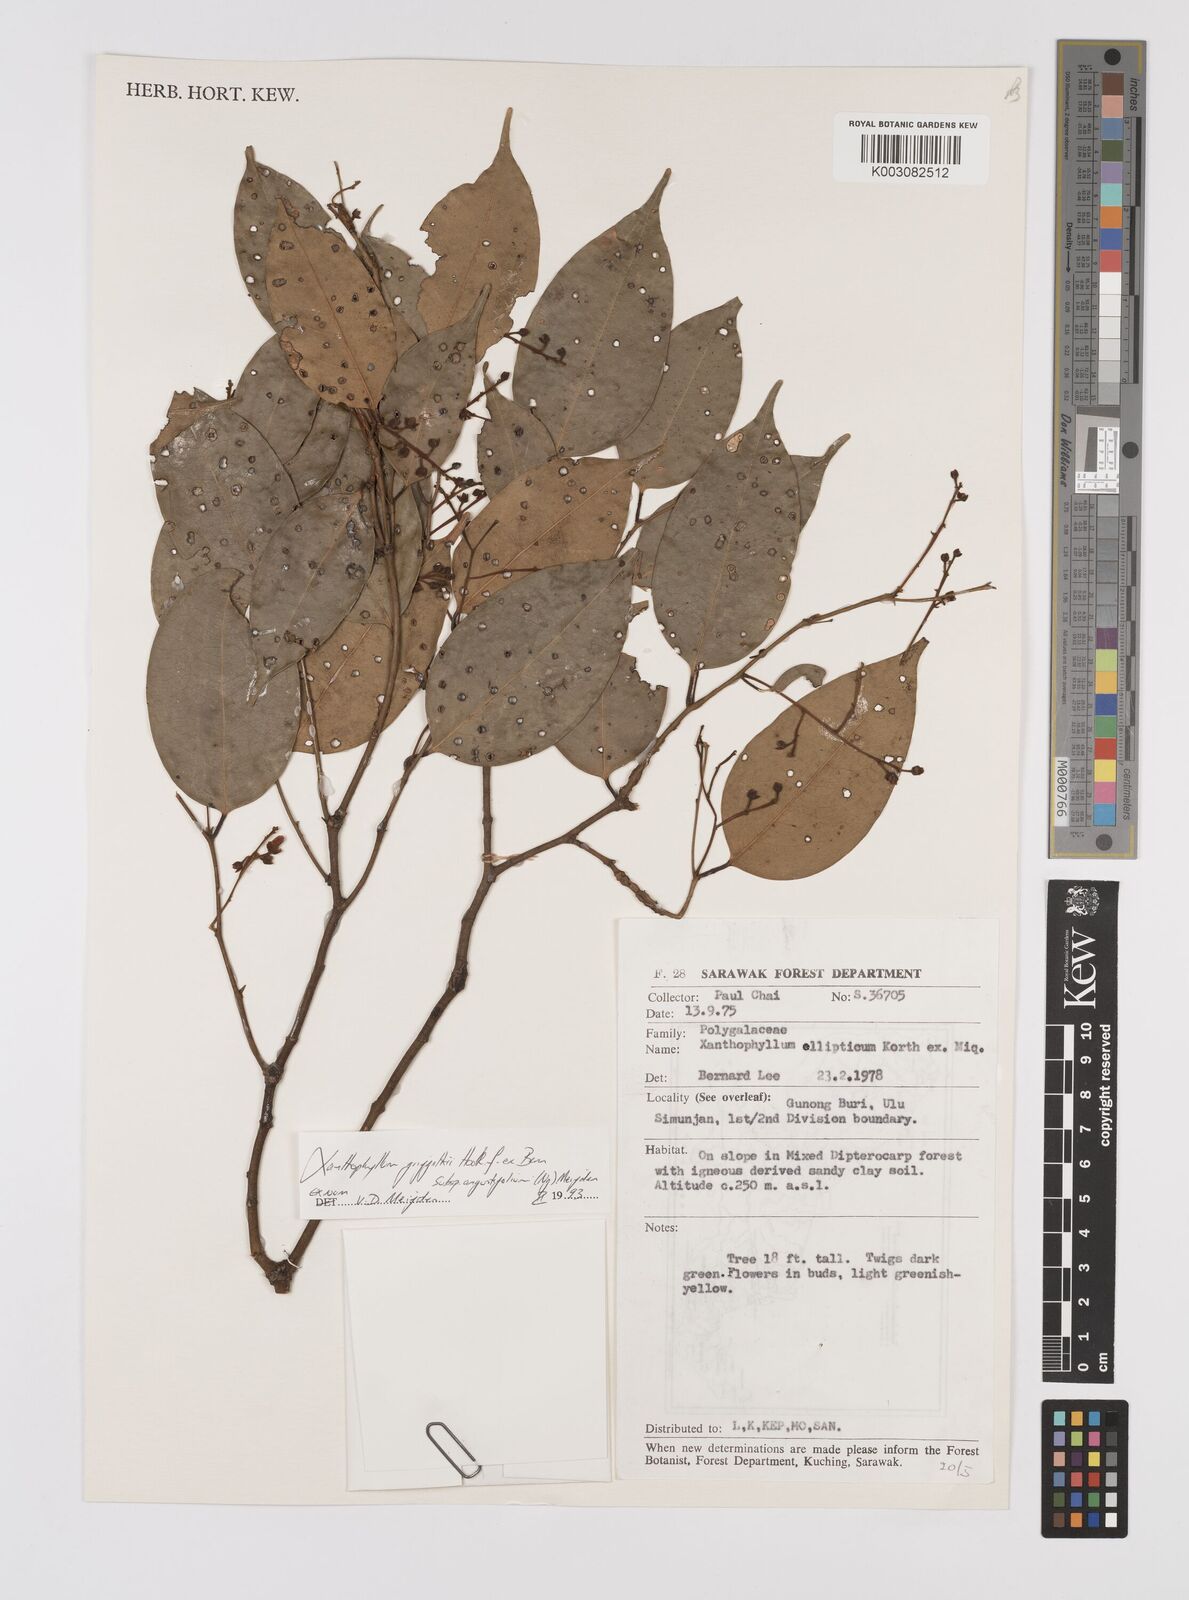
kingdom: Plantae
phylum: Tracheophyta
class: Magnoliopsida
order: Fabales
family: Polygalaceae
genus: Xanthophyllum
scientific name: Xanthophyllum griffithii
